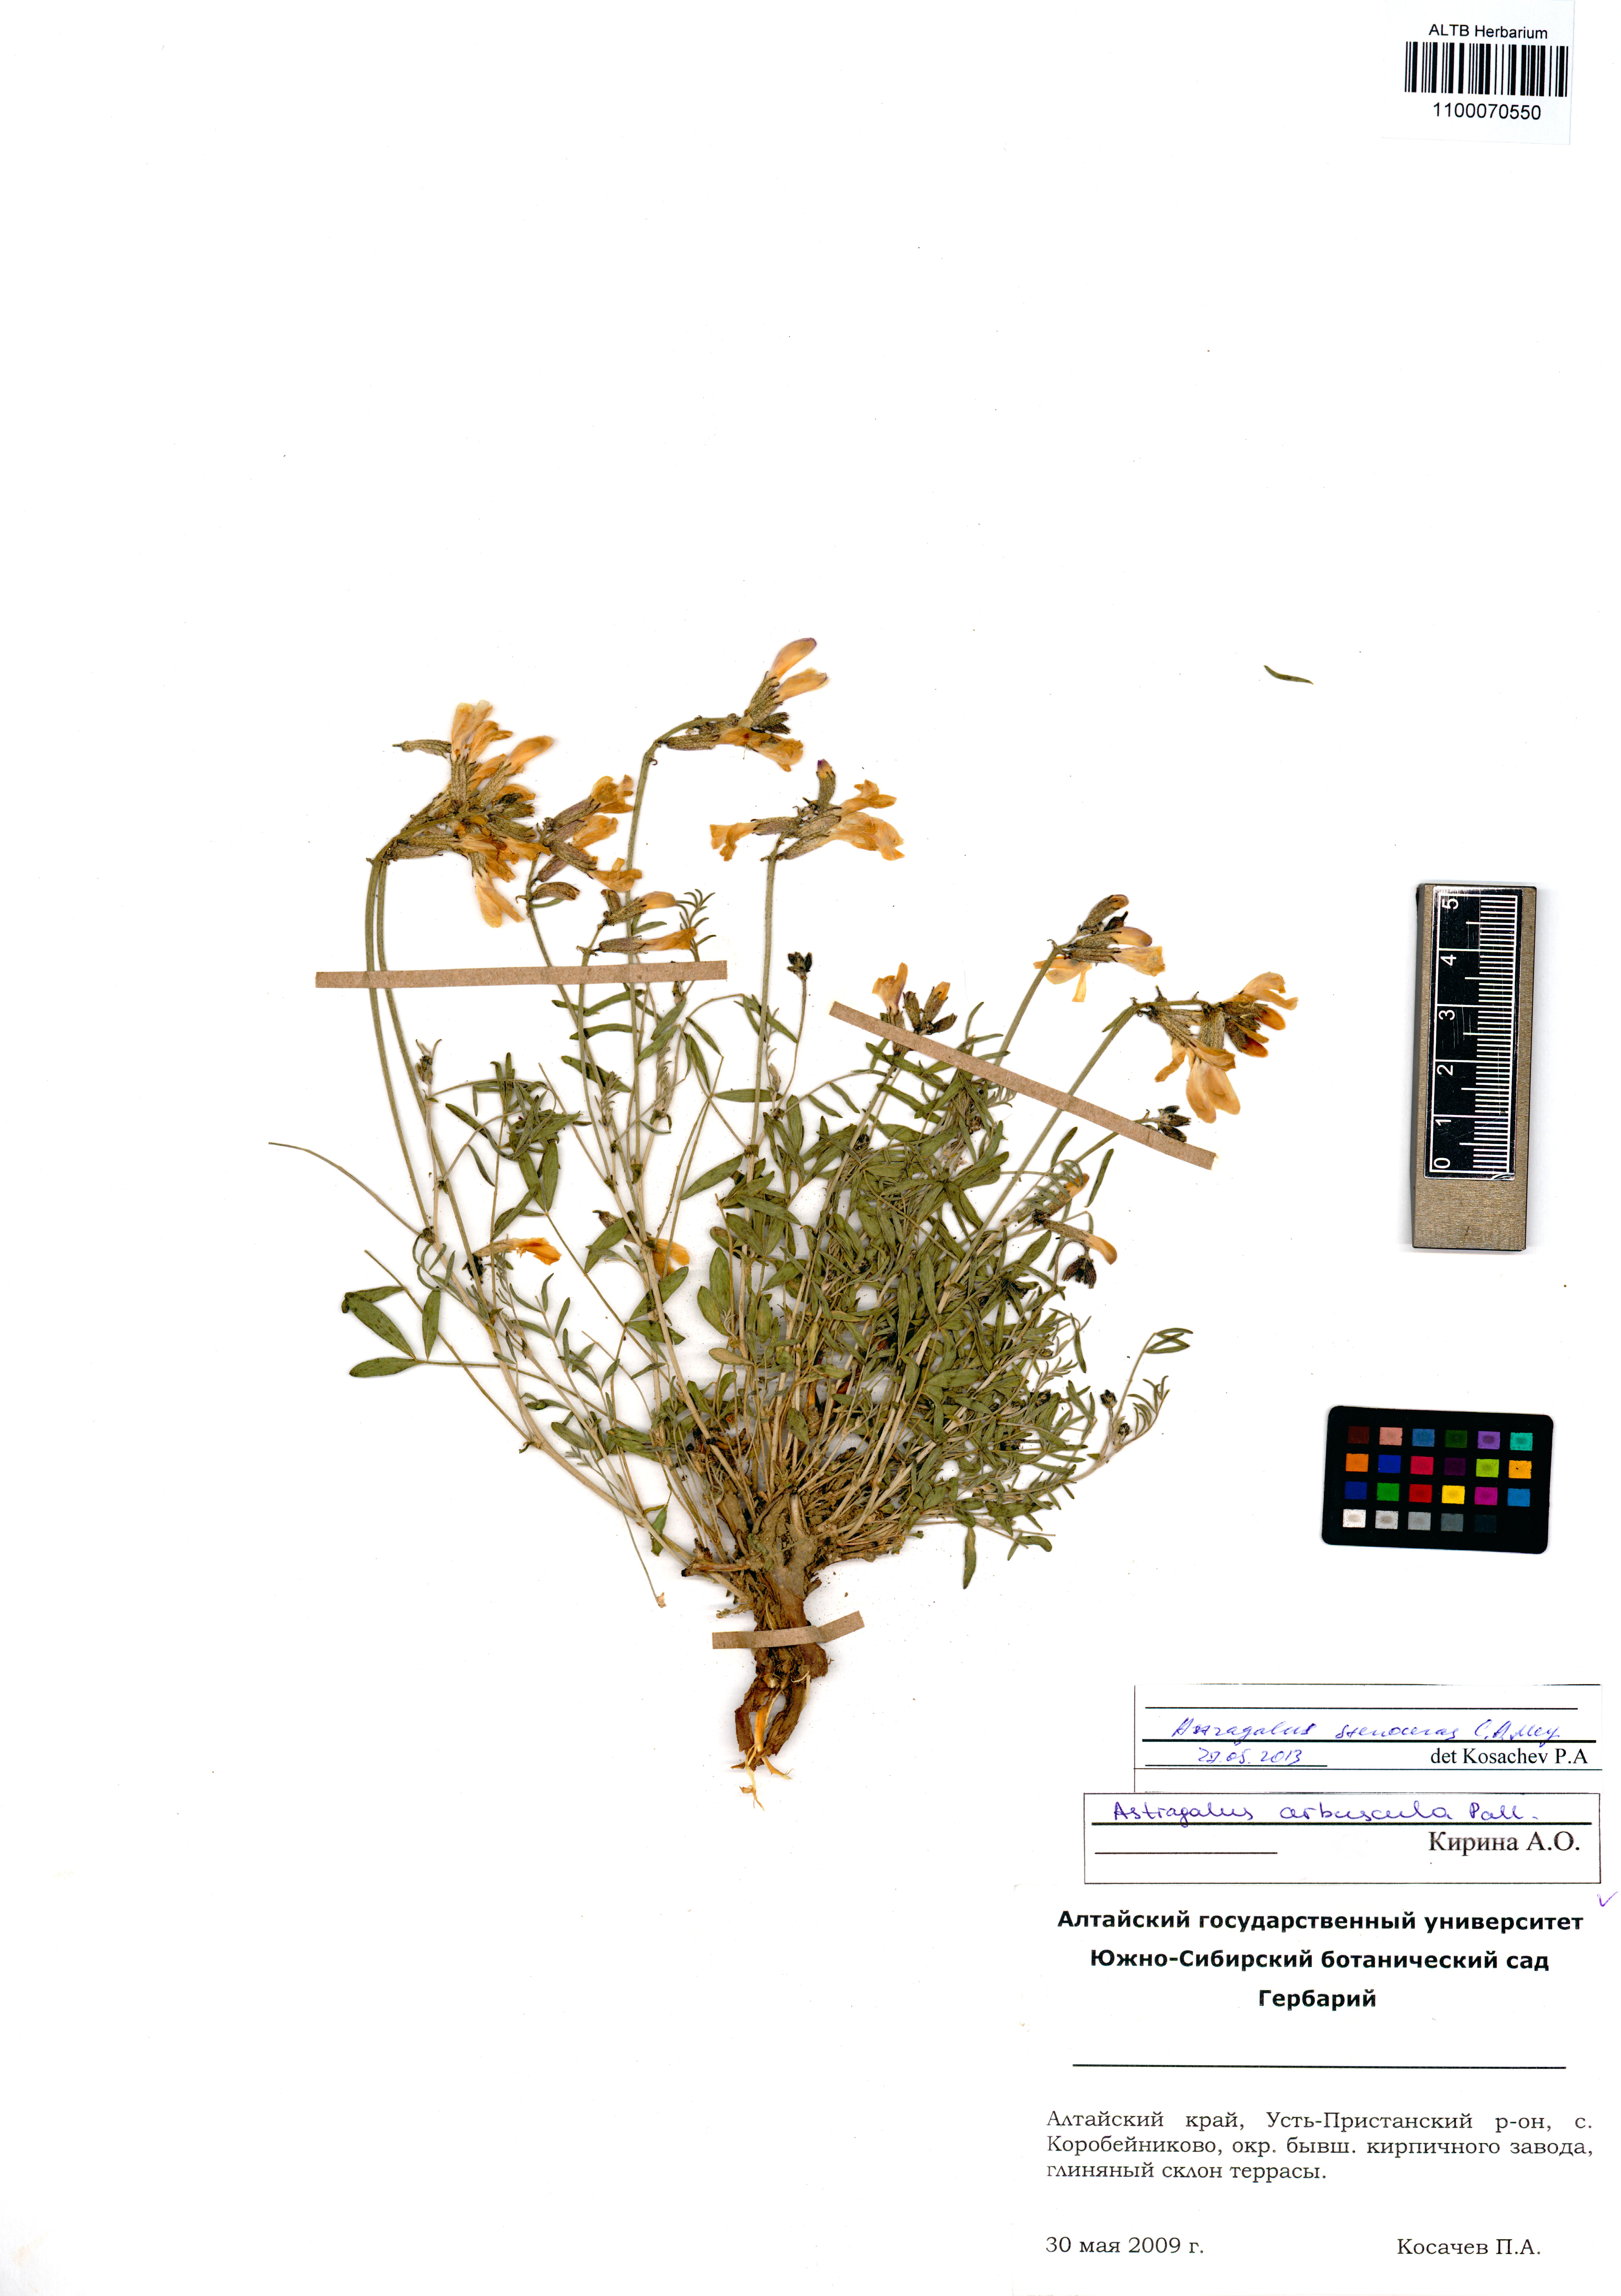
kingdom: Plantae
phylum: Tracheophyta
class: Magnoliopsida
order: Fabales
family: Fabaceae
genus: Astragalus
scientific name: Astragalus stenoceras
